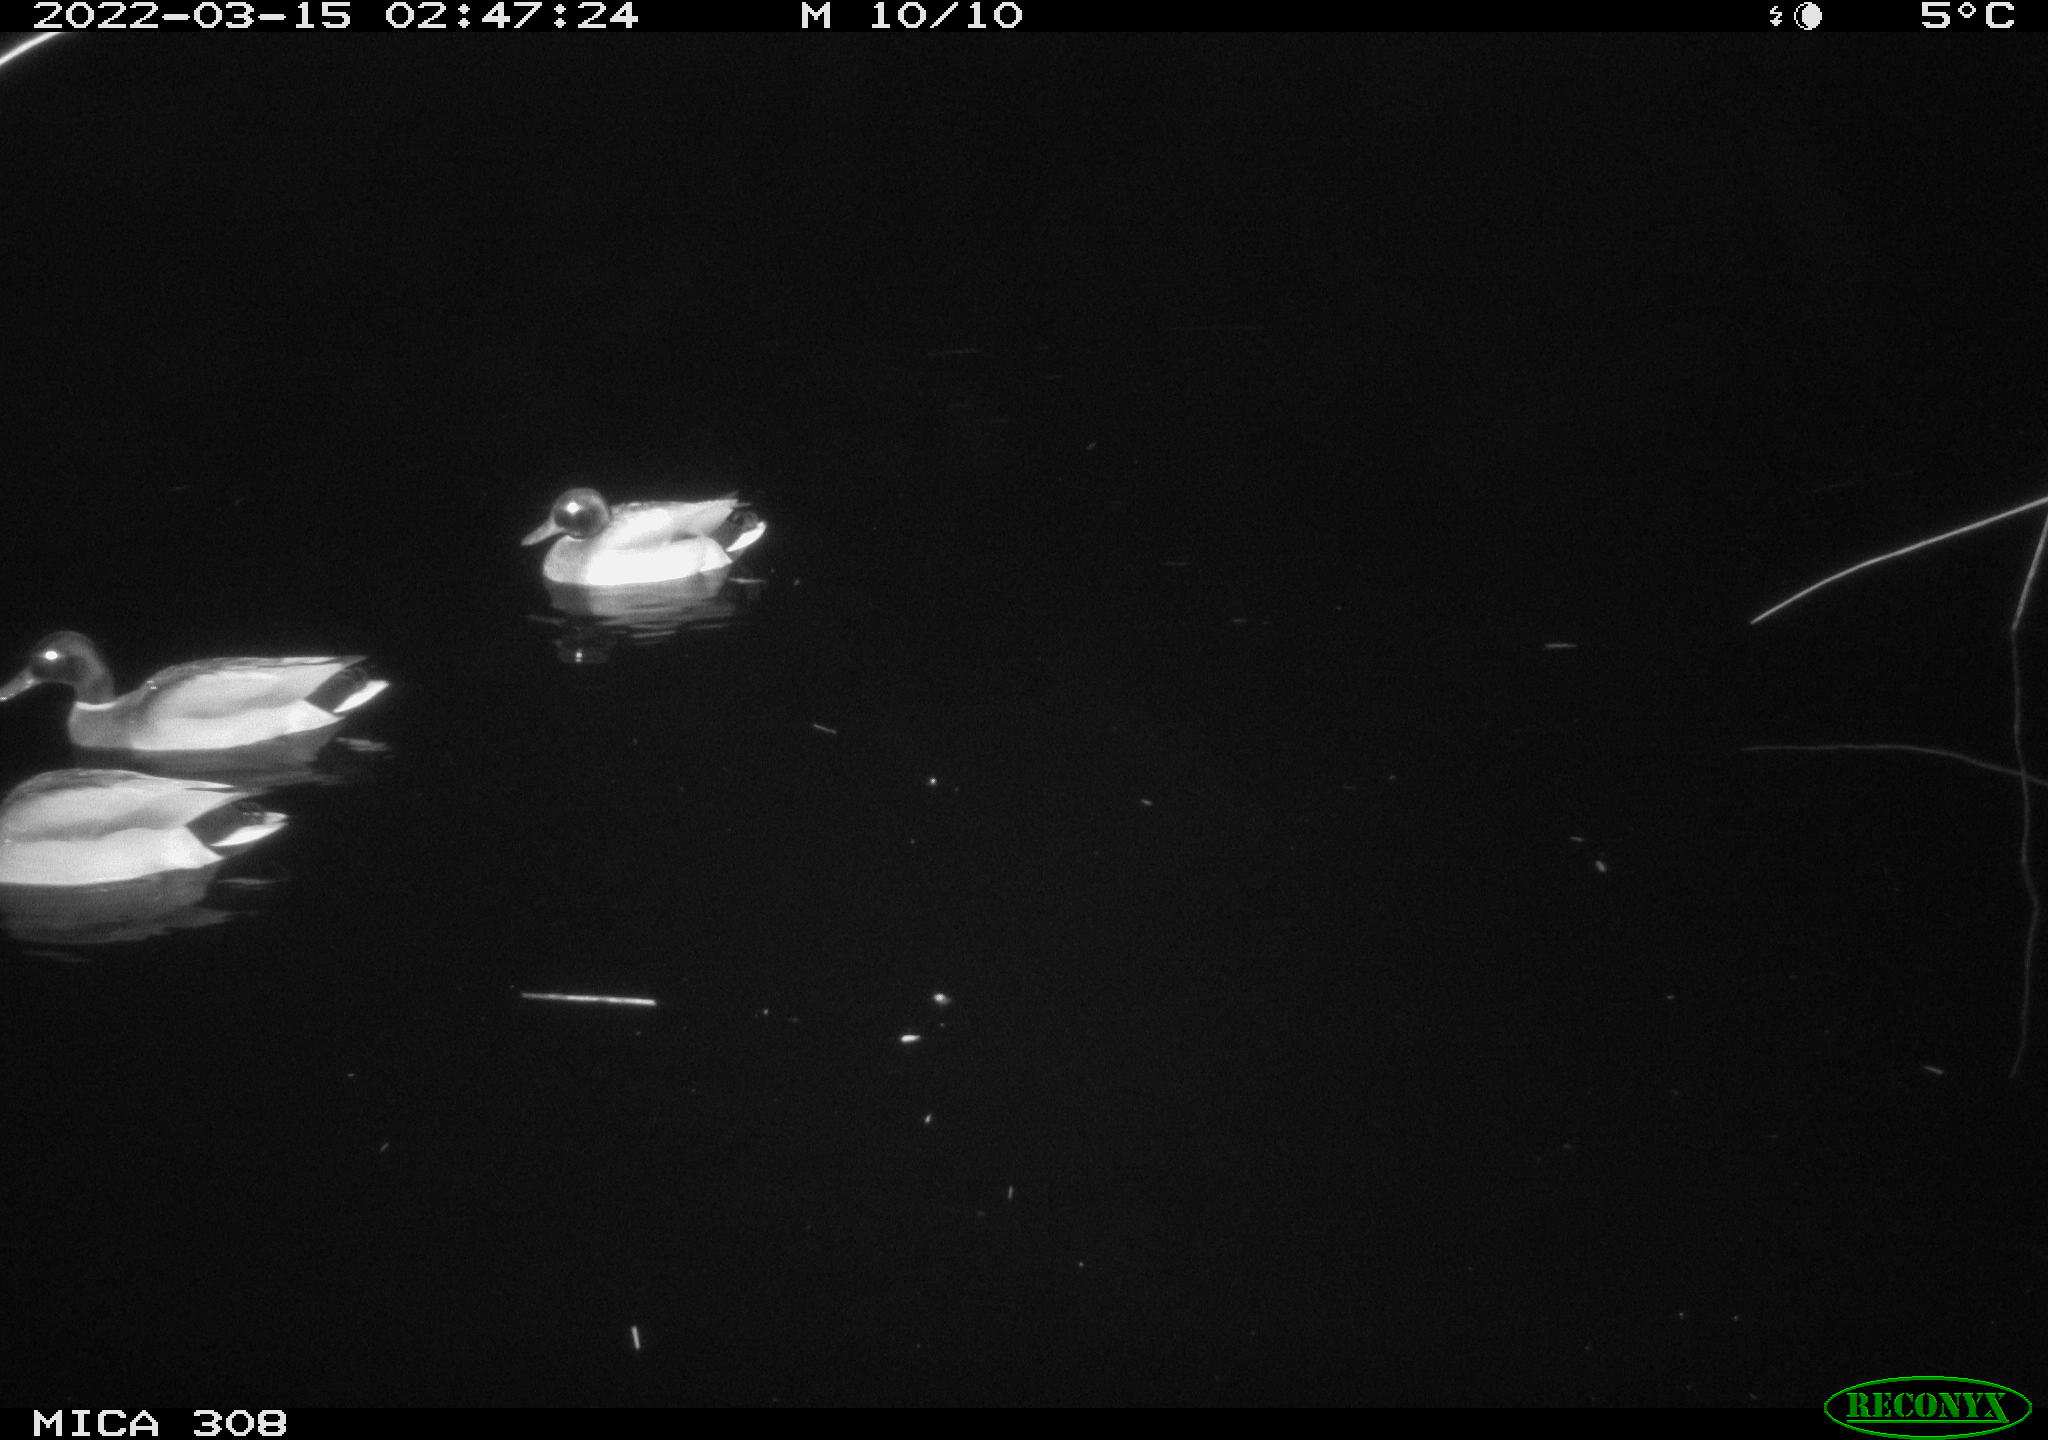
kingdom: Animalia
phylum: Chordata
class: Aves
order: Anseriformes
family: Anatidae
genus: Anas
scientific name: Anas platyrhynchos
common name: Mallard
